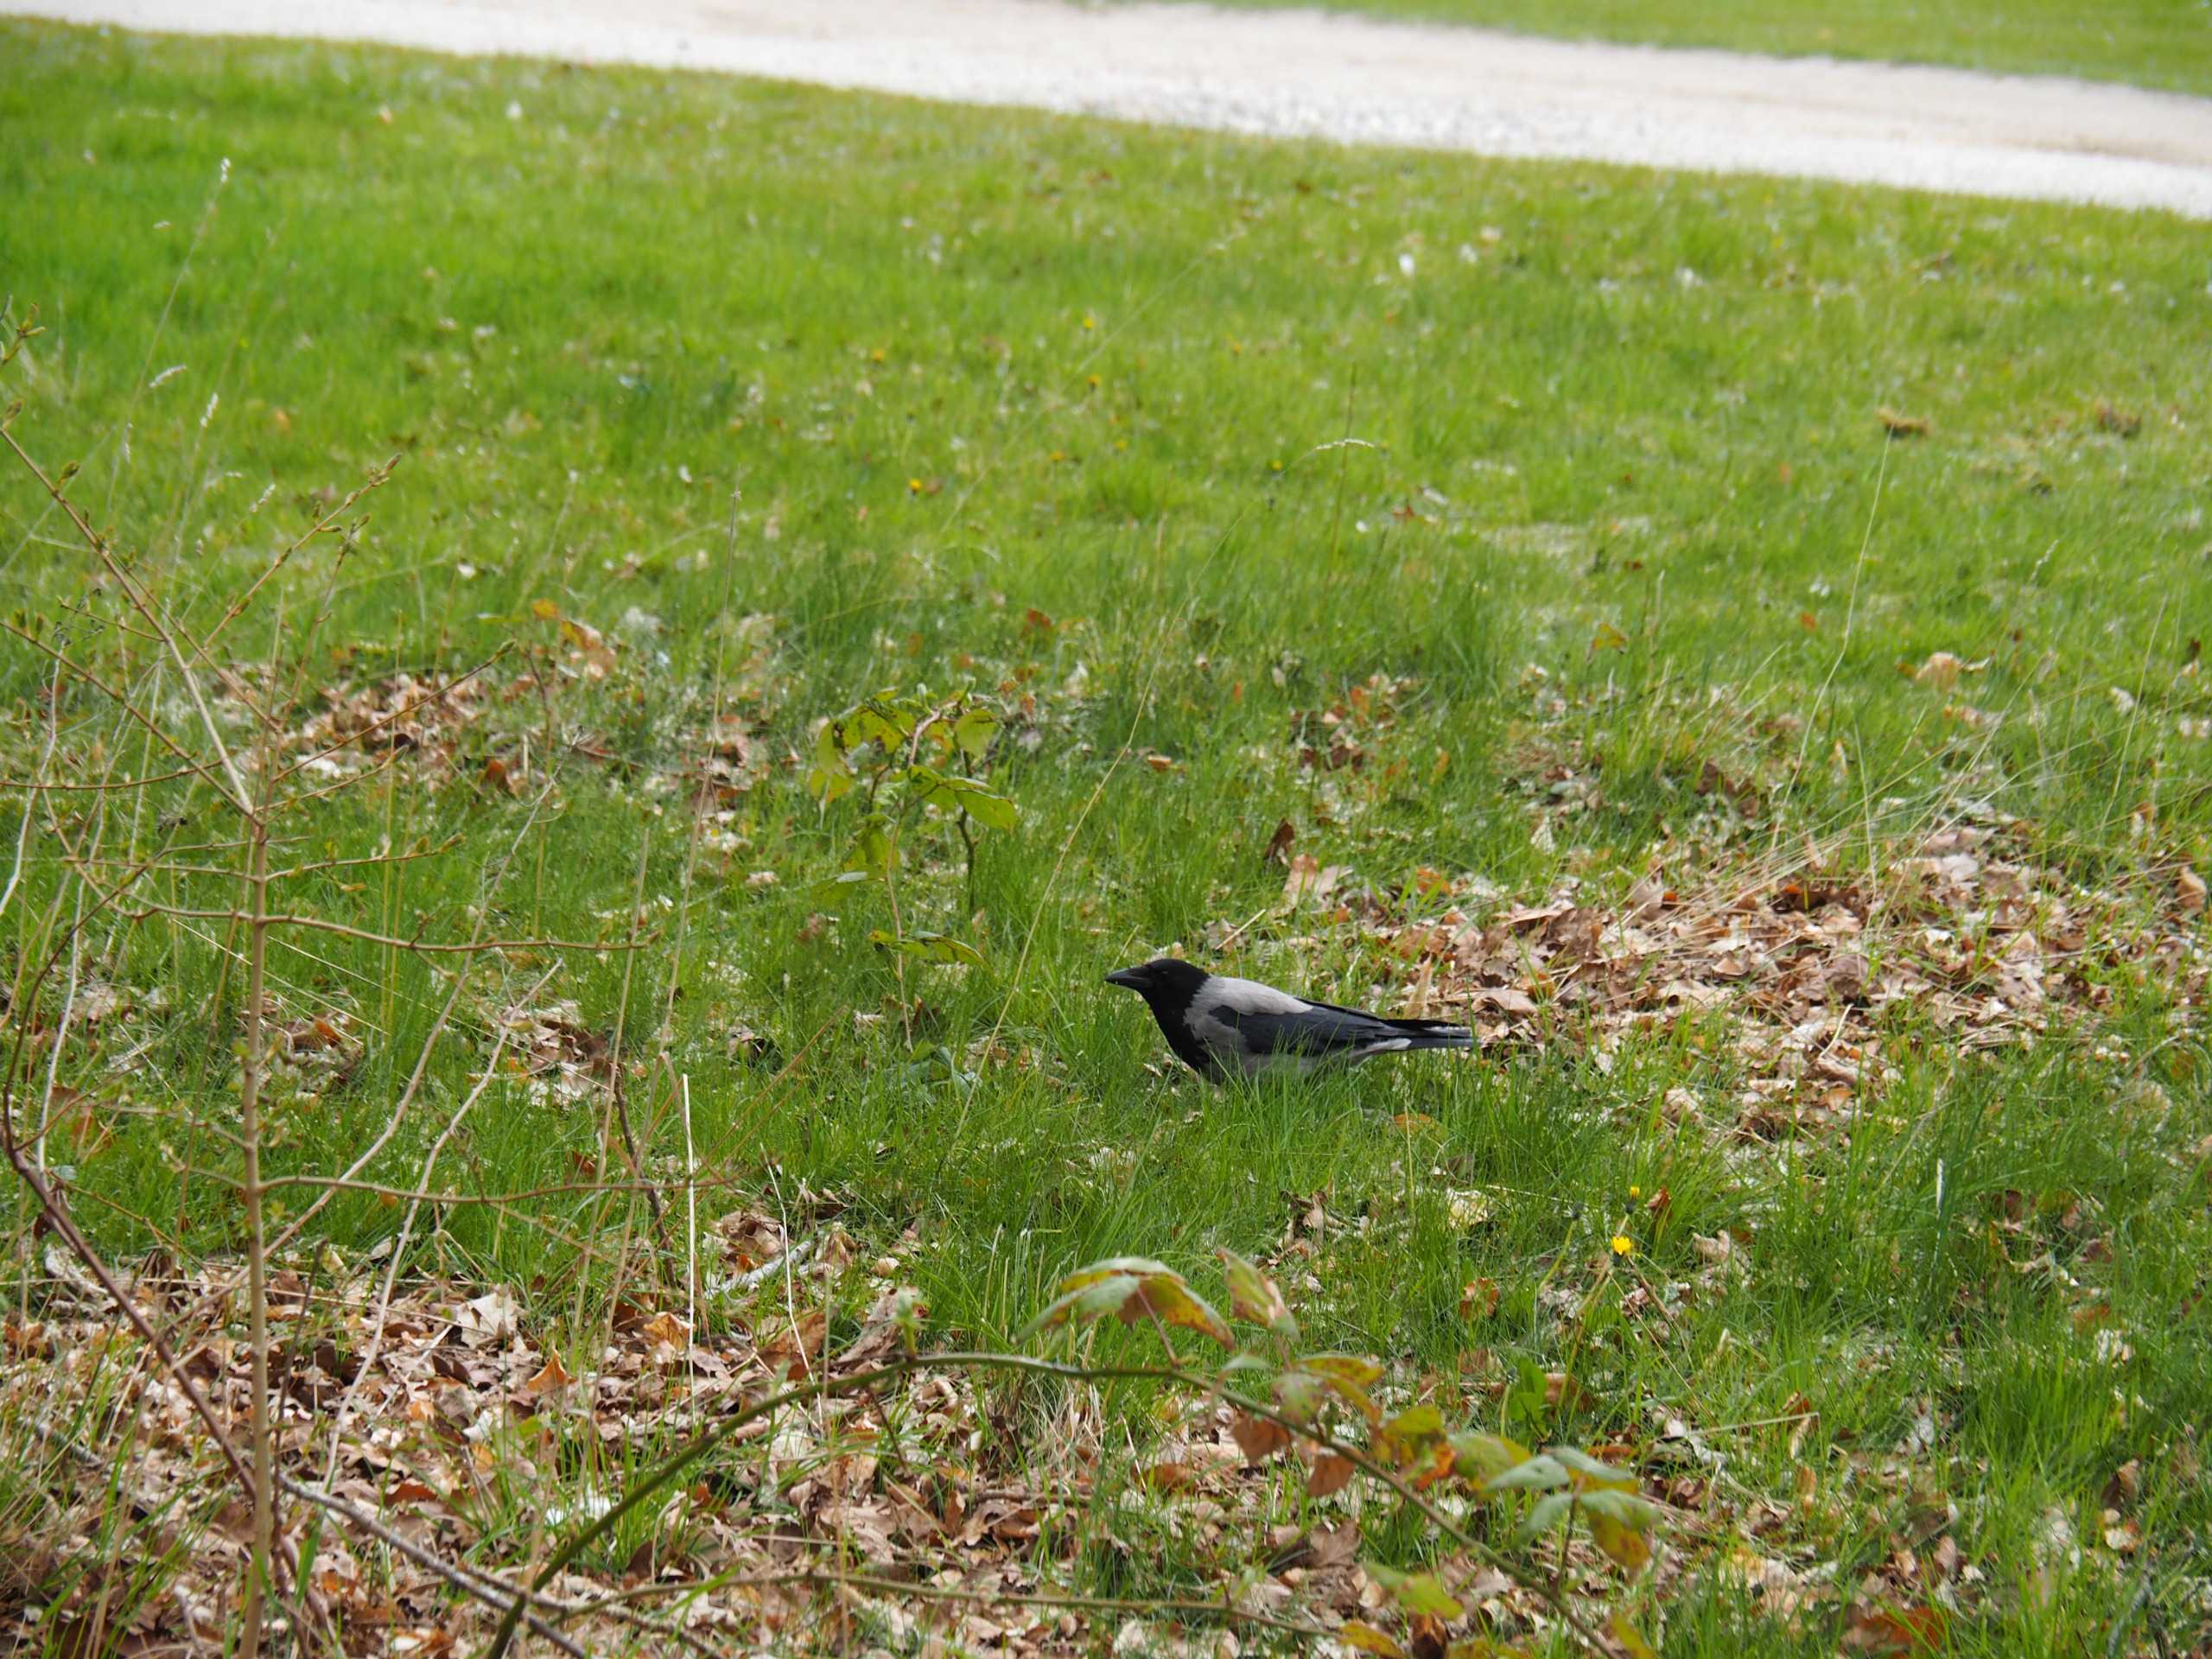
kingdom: Animalia
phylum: Chordata
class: Aves
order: Passeriformes
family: Corvidae
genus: Corvus
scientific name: Corvus cornix
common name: Gråkrage
